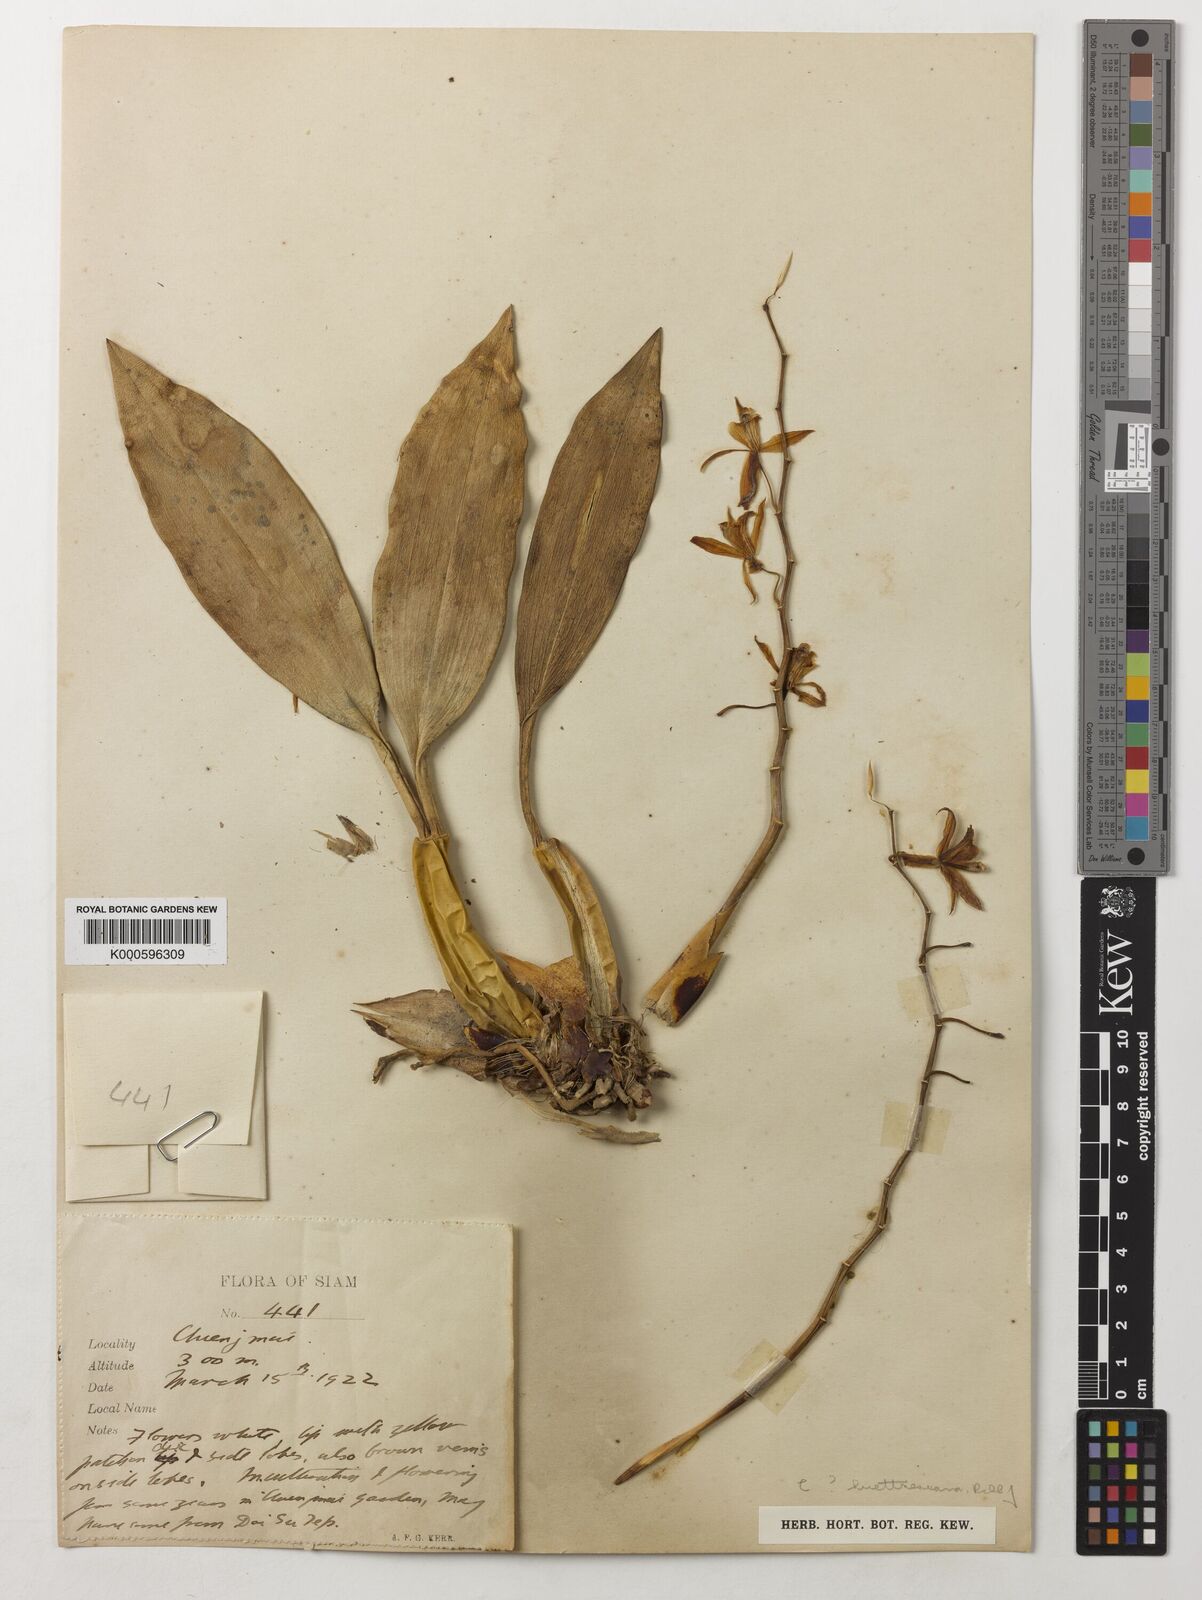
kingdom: Plantae
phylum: Tracheophyta
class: Liliopsida
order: Asparagales
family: Orchidaceae
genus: Coelogyne
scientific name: Coelogyne huettneriana
